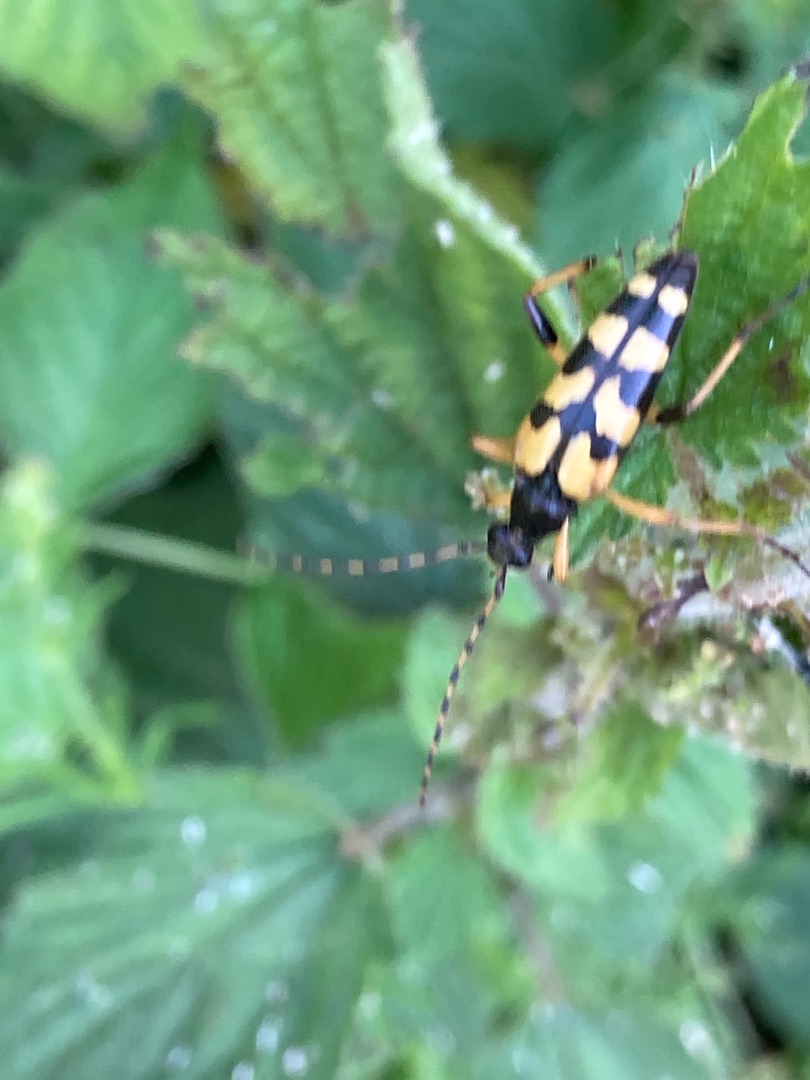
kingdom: Animalia
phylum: Arthropoda
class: Insecta
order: Coleoptera
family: Cerambycidae
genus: Rutpela
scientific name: Rutpela maculata
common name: Sydlig blomsterbuk
